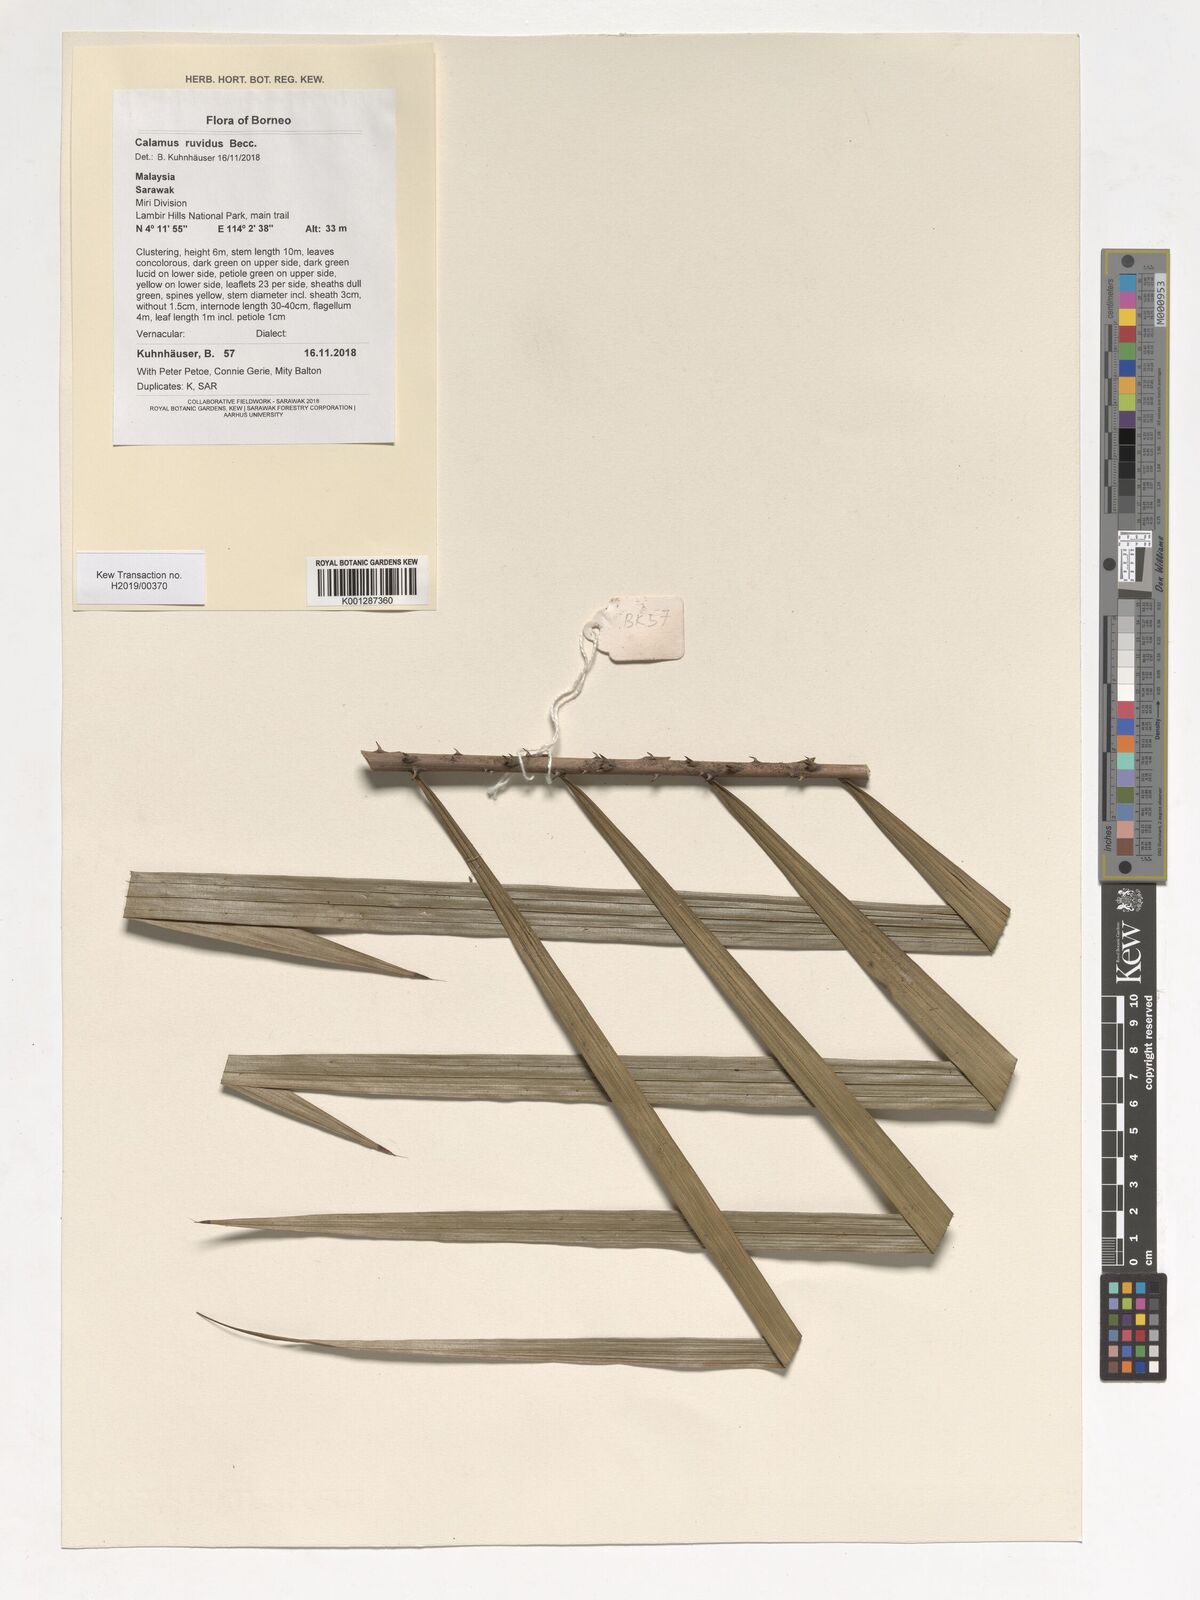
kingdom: Plantae
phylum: Tracheophyta
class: Liliopsida
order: Arecales
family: Arecaceae
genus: Calamus
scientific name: Calamus ruvidus
